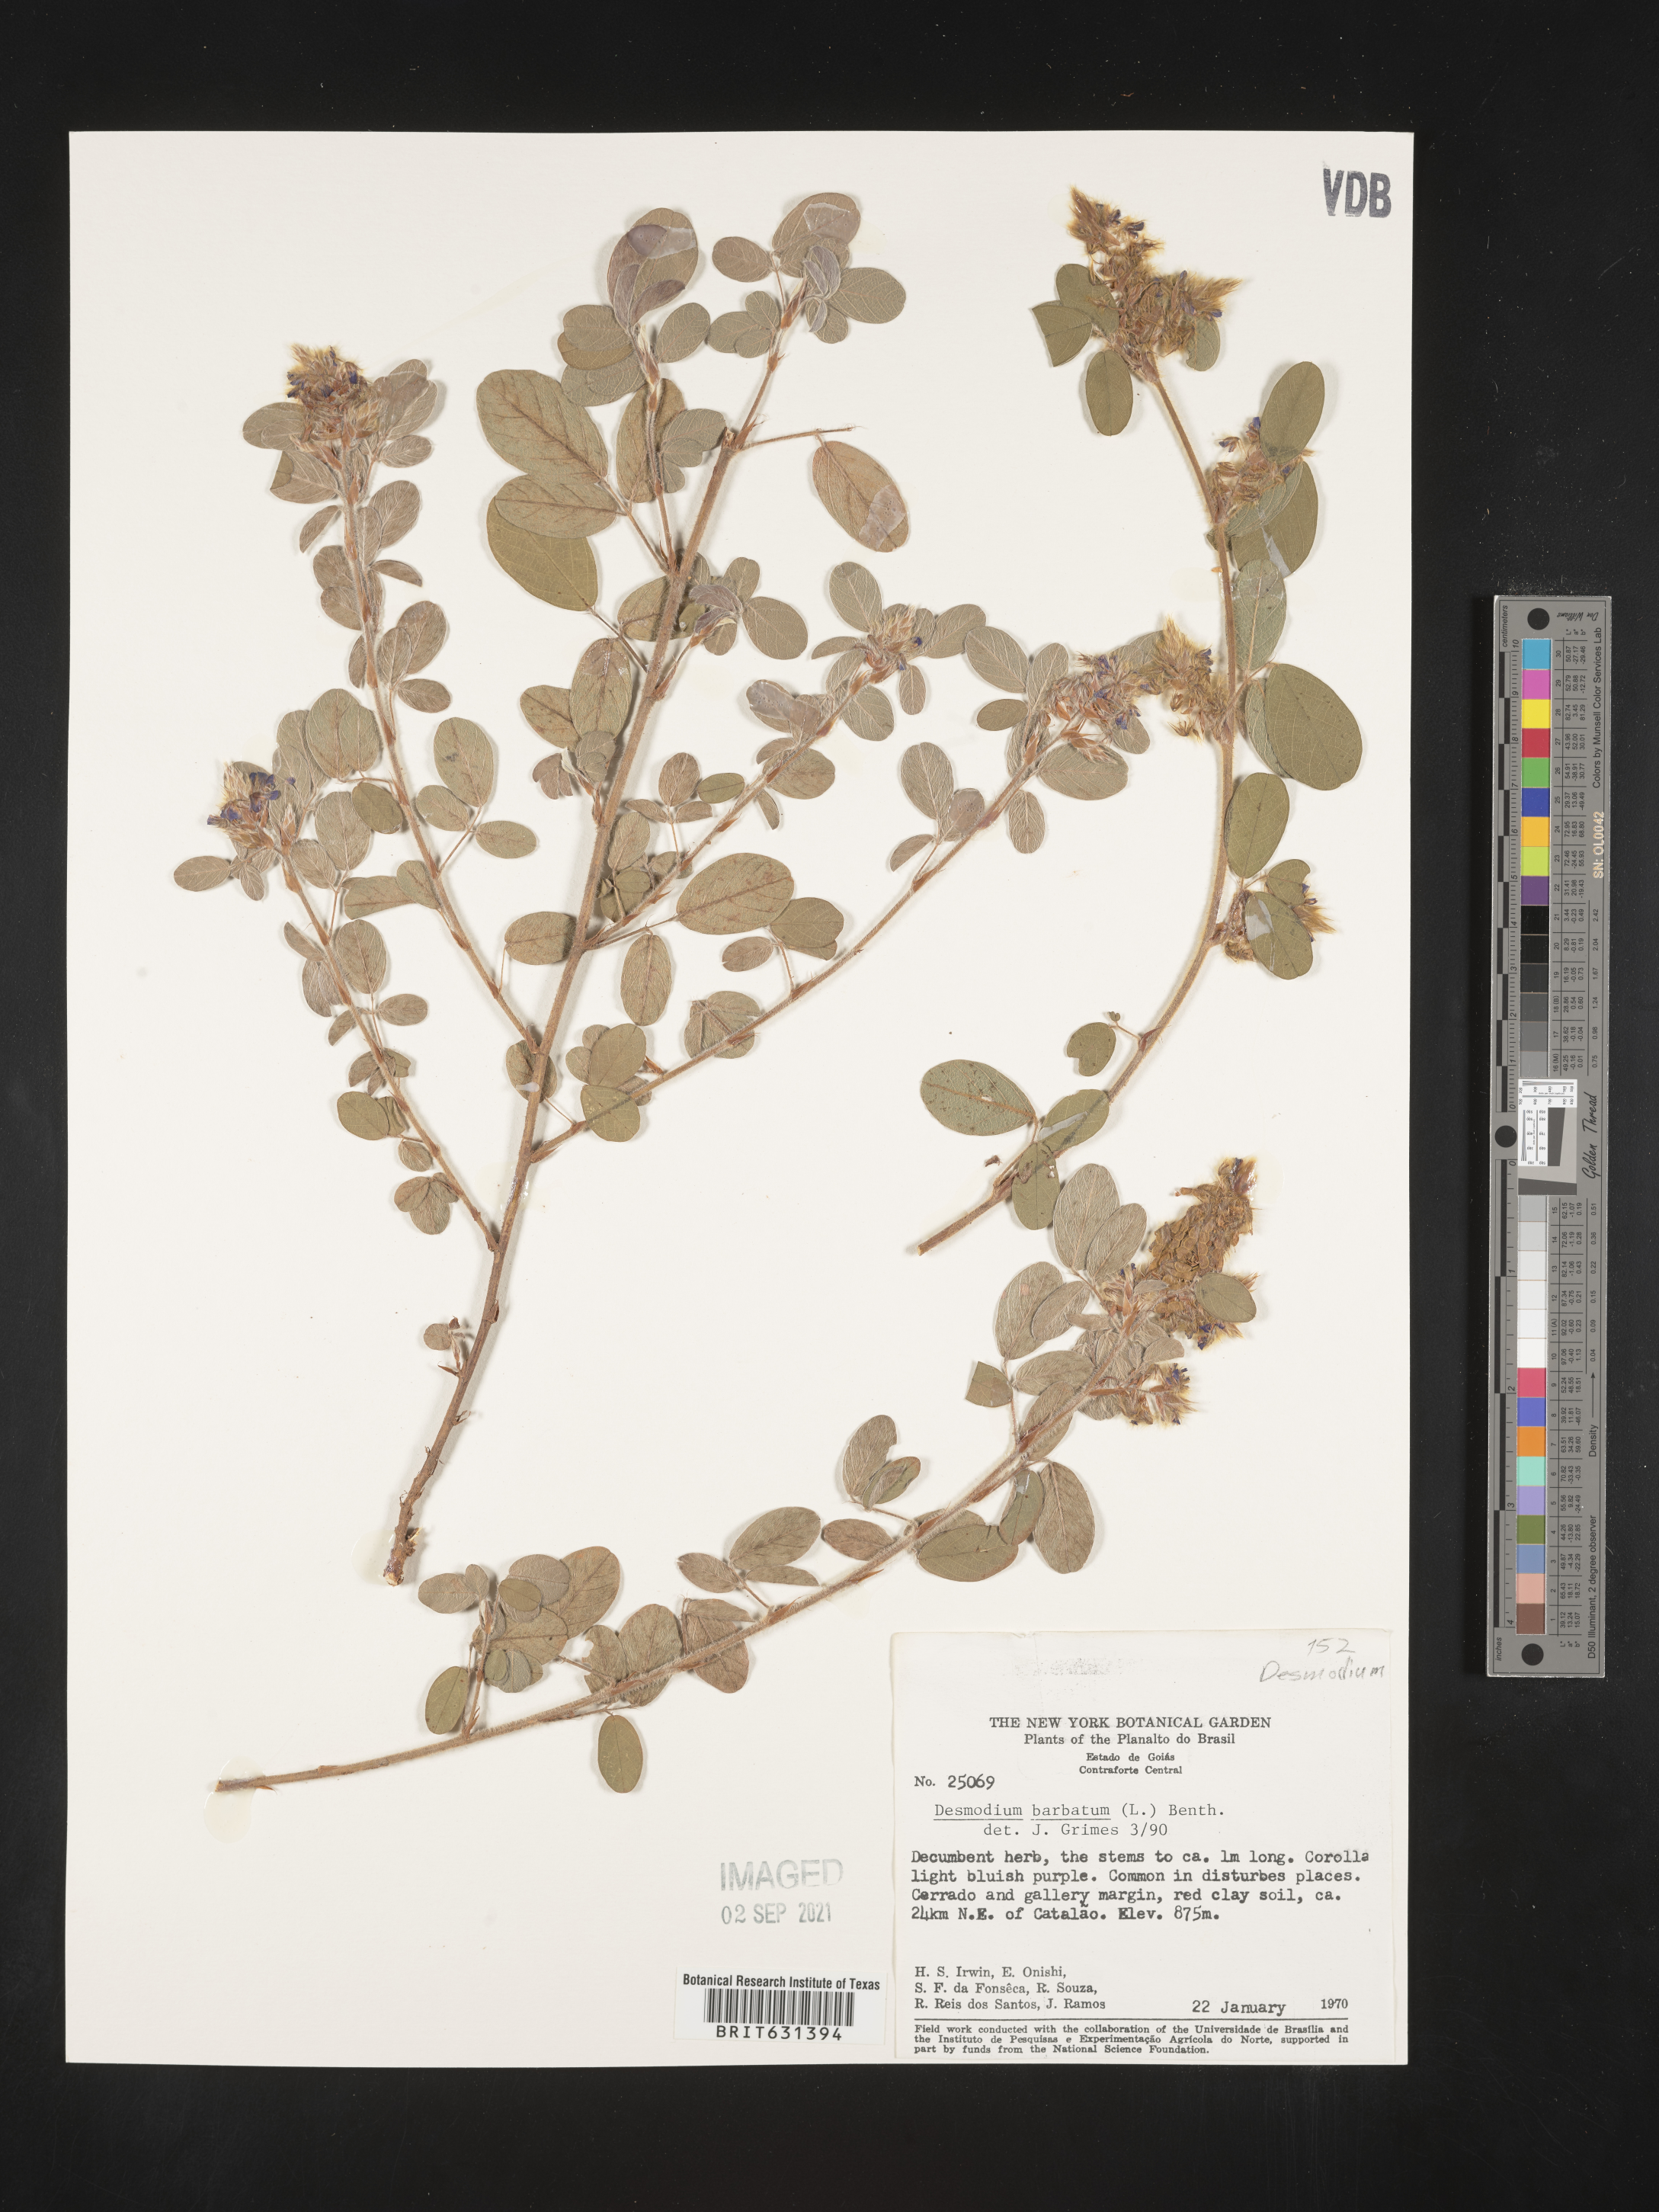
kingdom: Plantae
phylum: Tracheophyta
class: Magnoliopsida
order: Fabales
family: Fabaceae
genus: Grona
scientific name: Grona barbata
